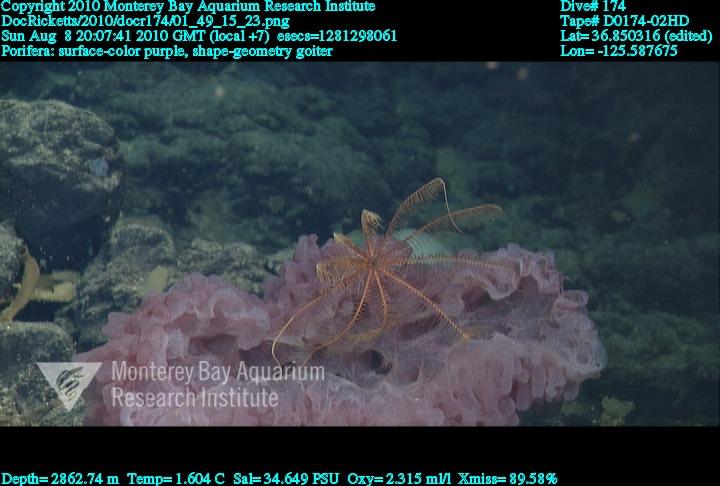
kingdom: Animalia
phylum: Porifera
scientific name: Porifera
